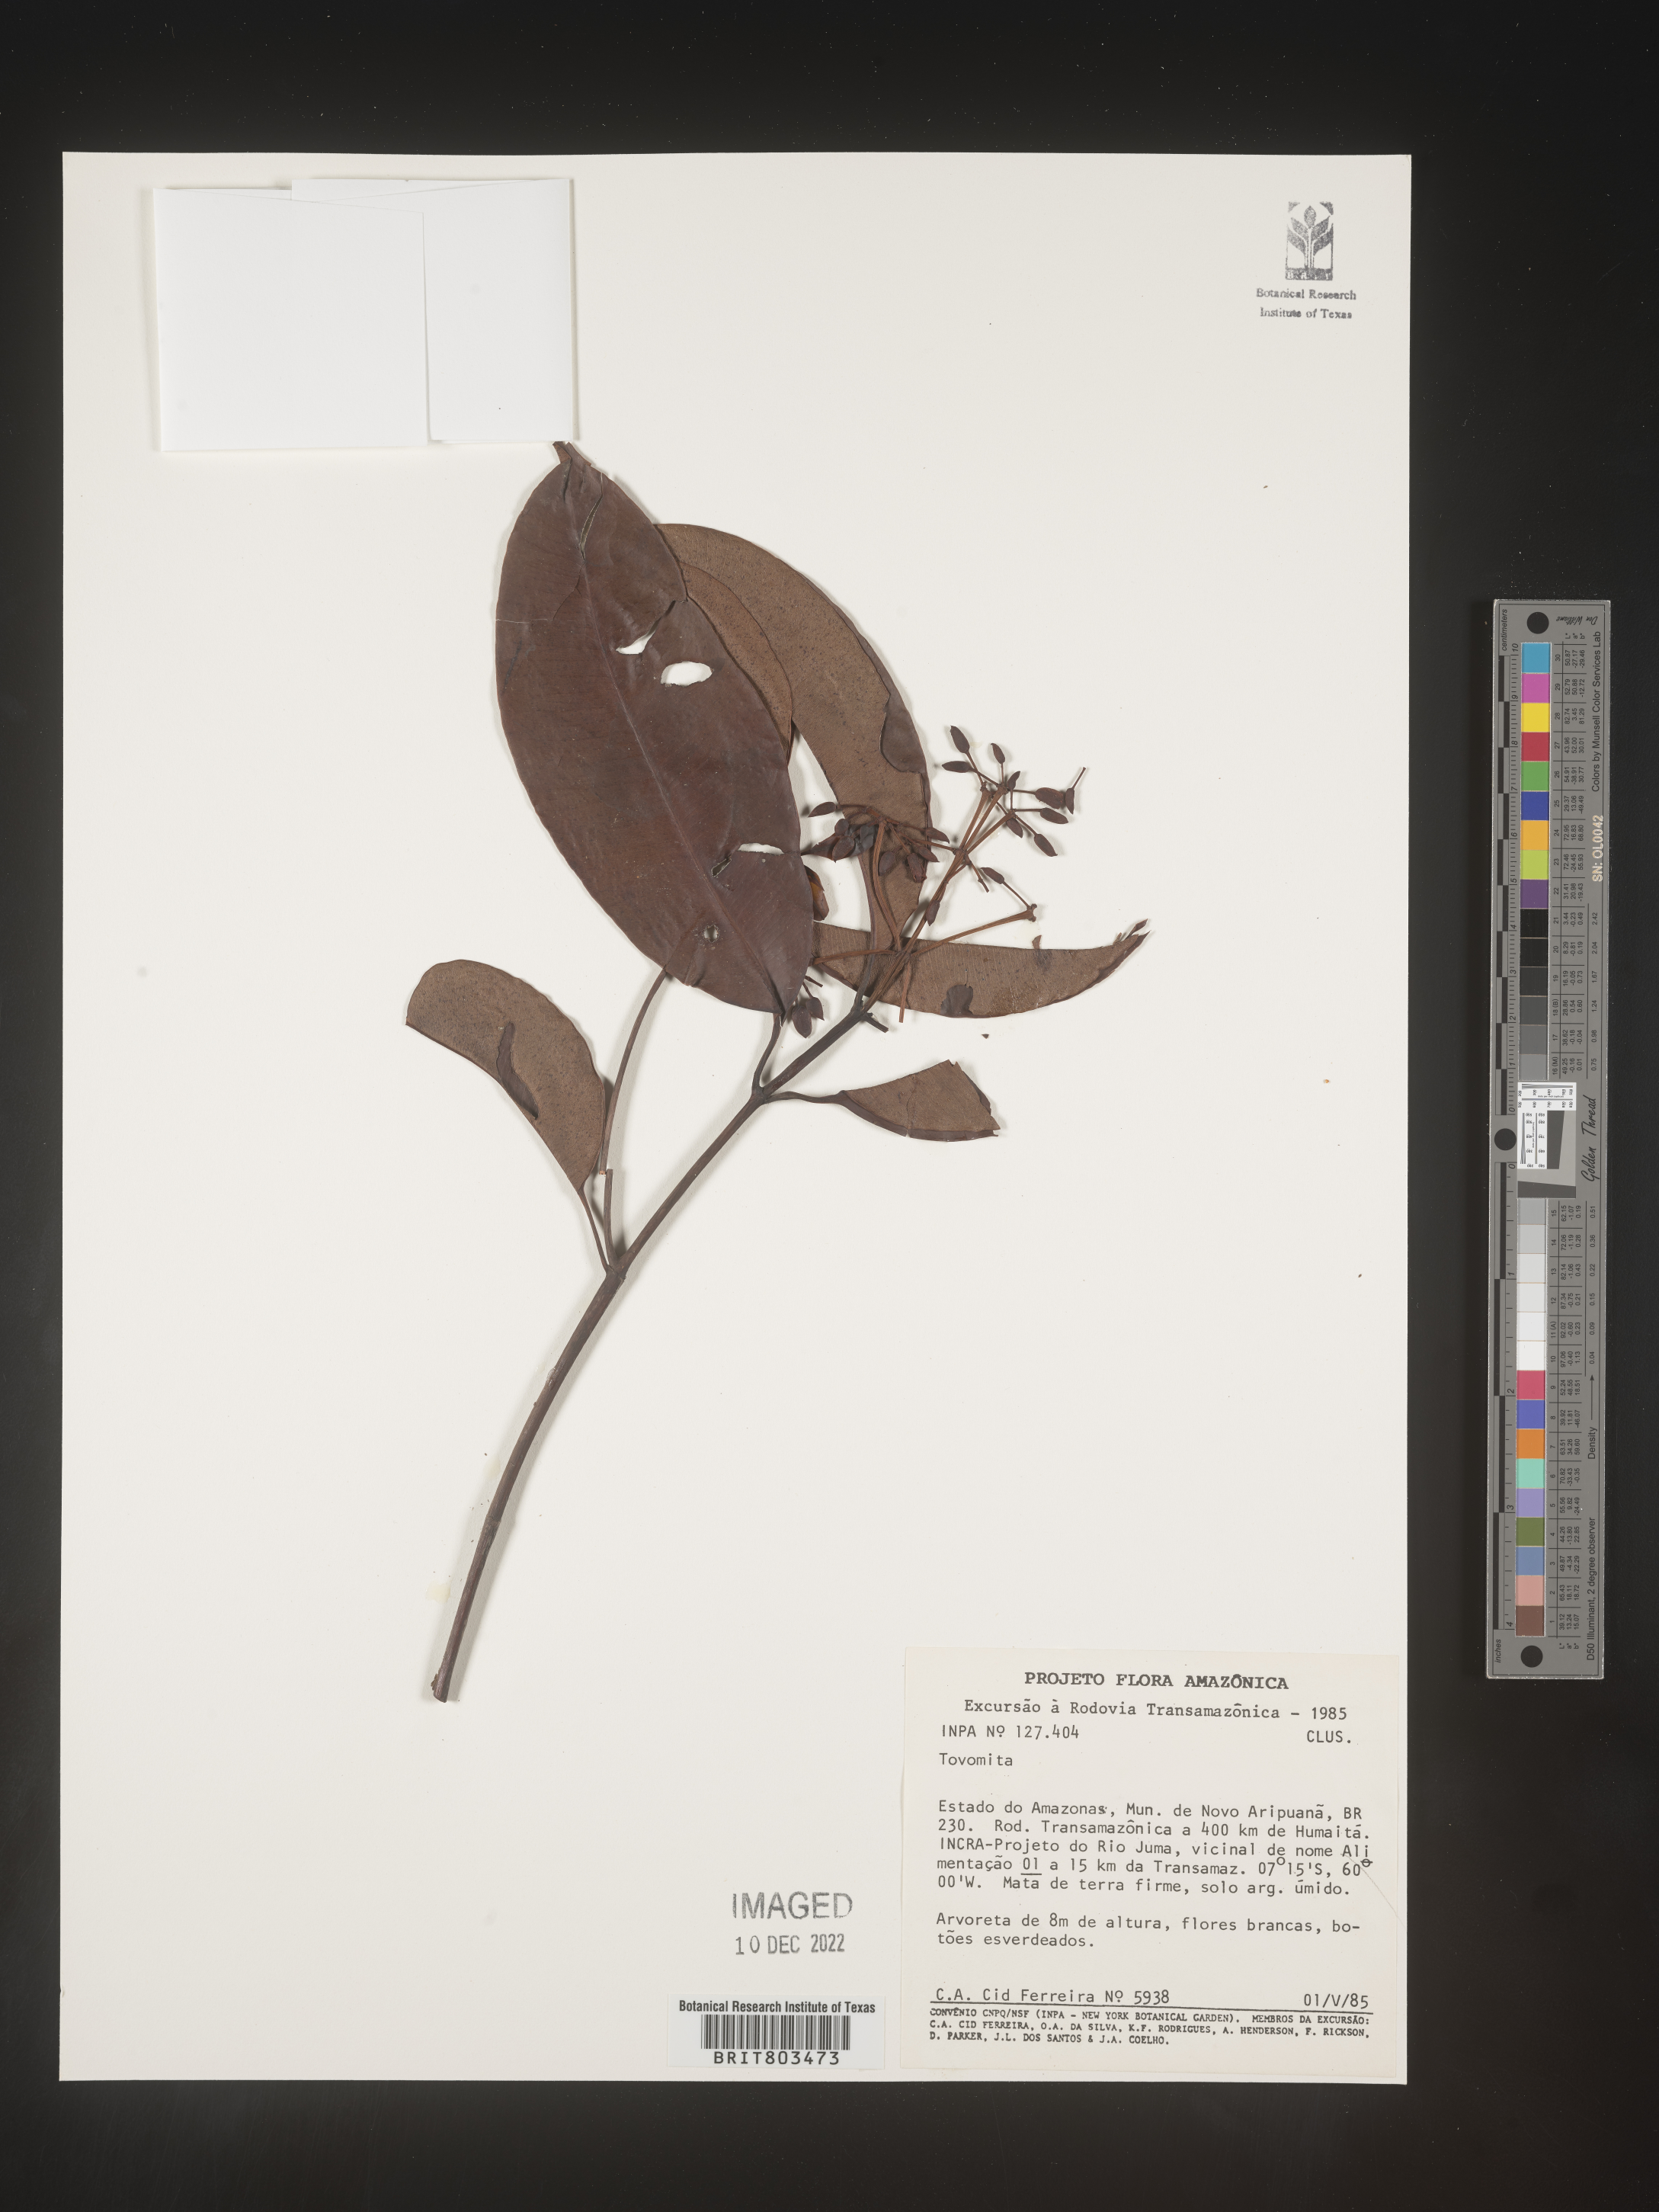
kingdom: Plantae
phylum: Tracheophyta
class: Magnoliopsida
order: Malpighiales
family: Clusiaceae
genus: Tovomita
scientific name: Tovomita
